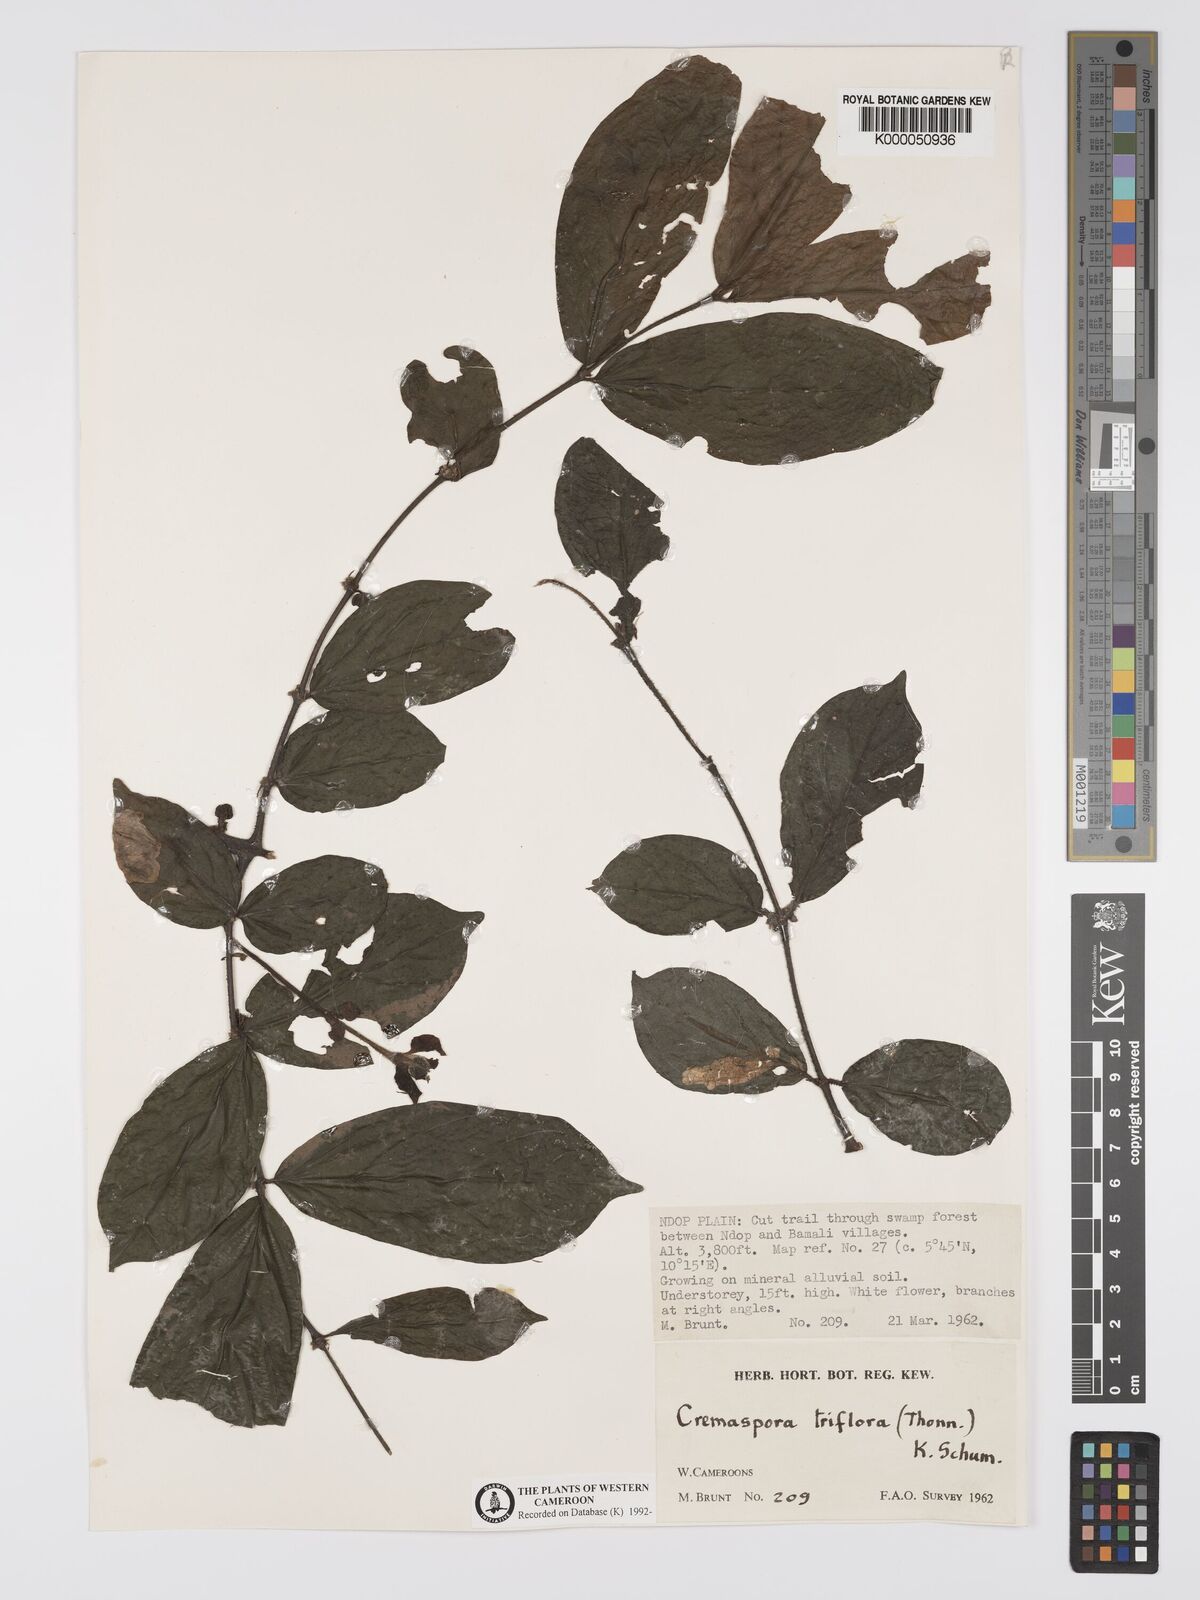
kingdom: Plantae
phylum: Tracheophyta
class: Magnoliopsida
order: Gentianales
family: Rubiaceae
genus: Cremaspora
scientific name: Cremaspora triflora
